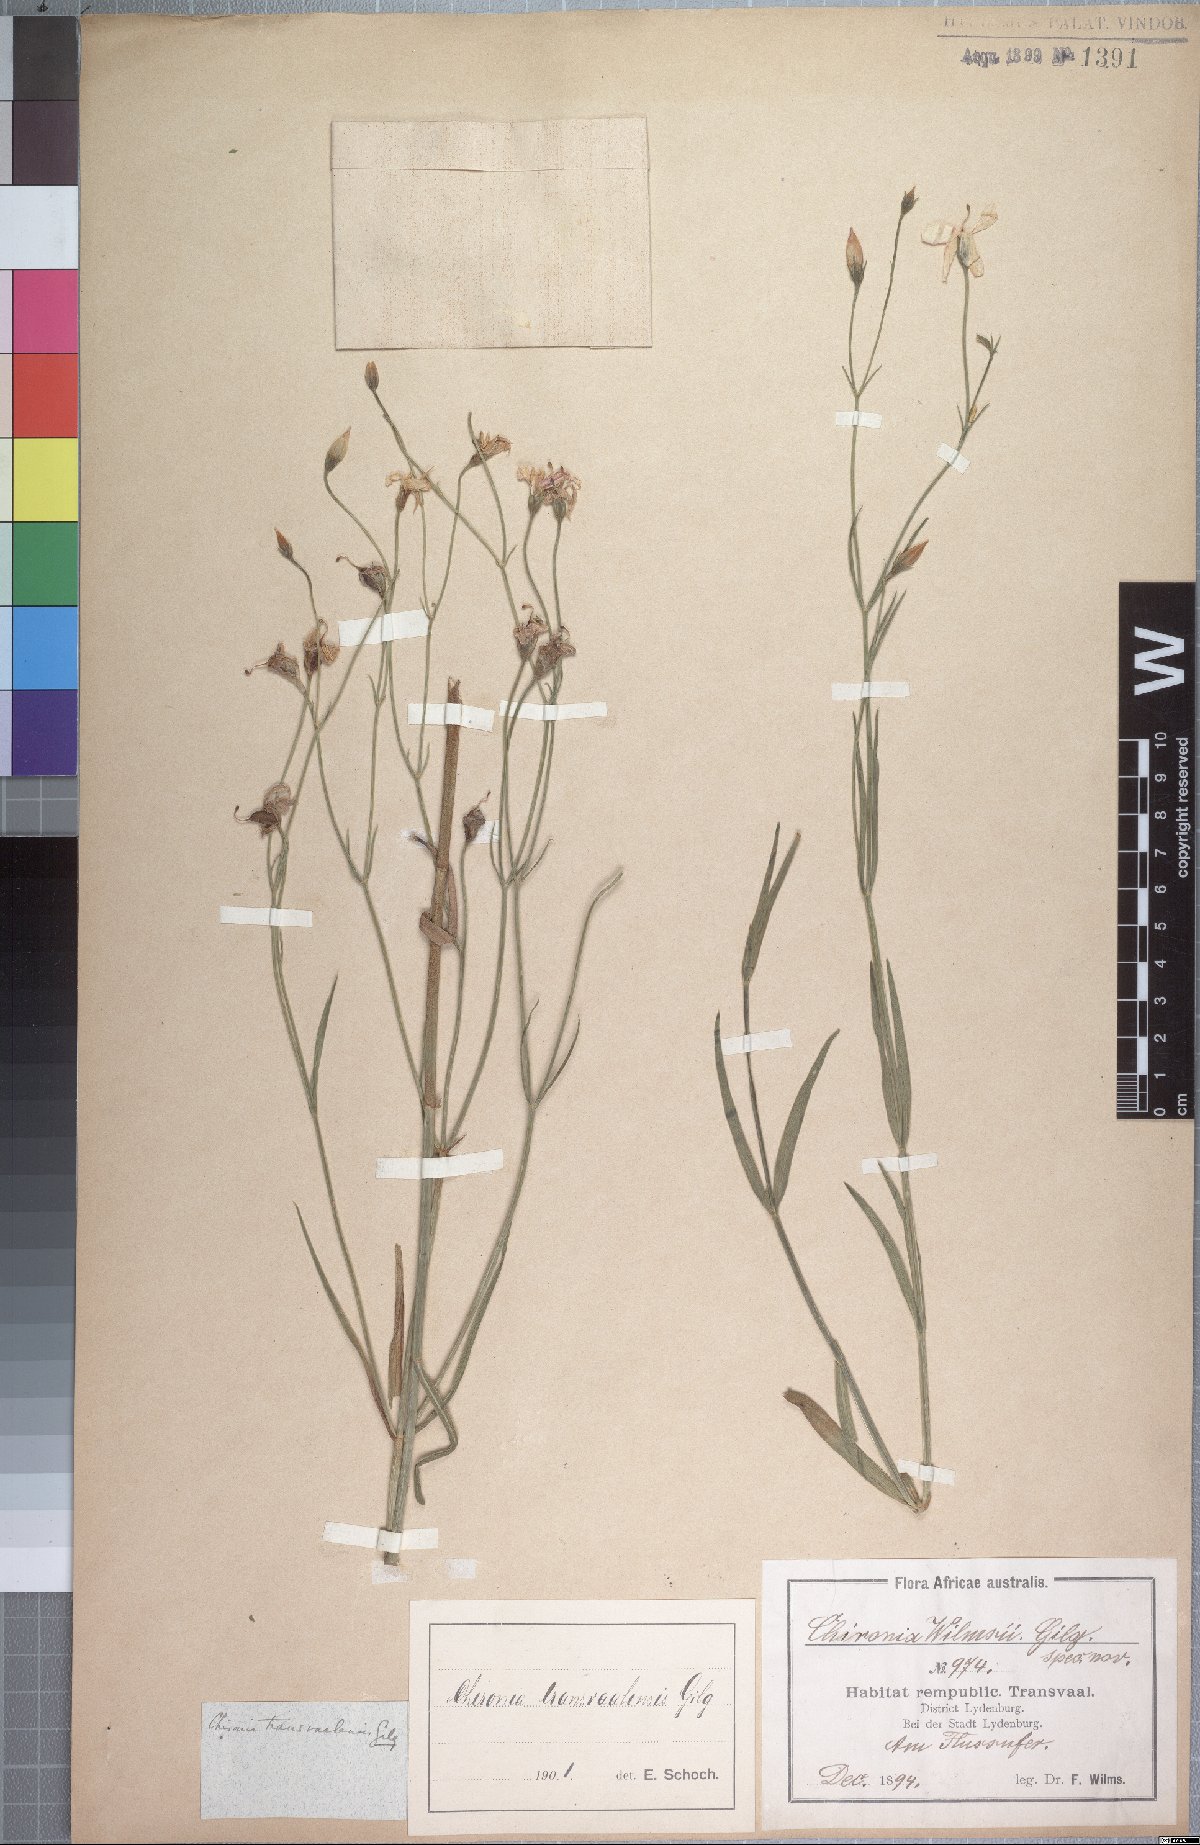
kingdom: Plantae
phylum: Tracheophyta
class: Magnoliopsida
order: Gentianales
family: Gentianaceae
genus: Chironia
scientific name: Chironia palustris
